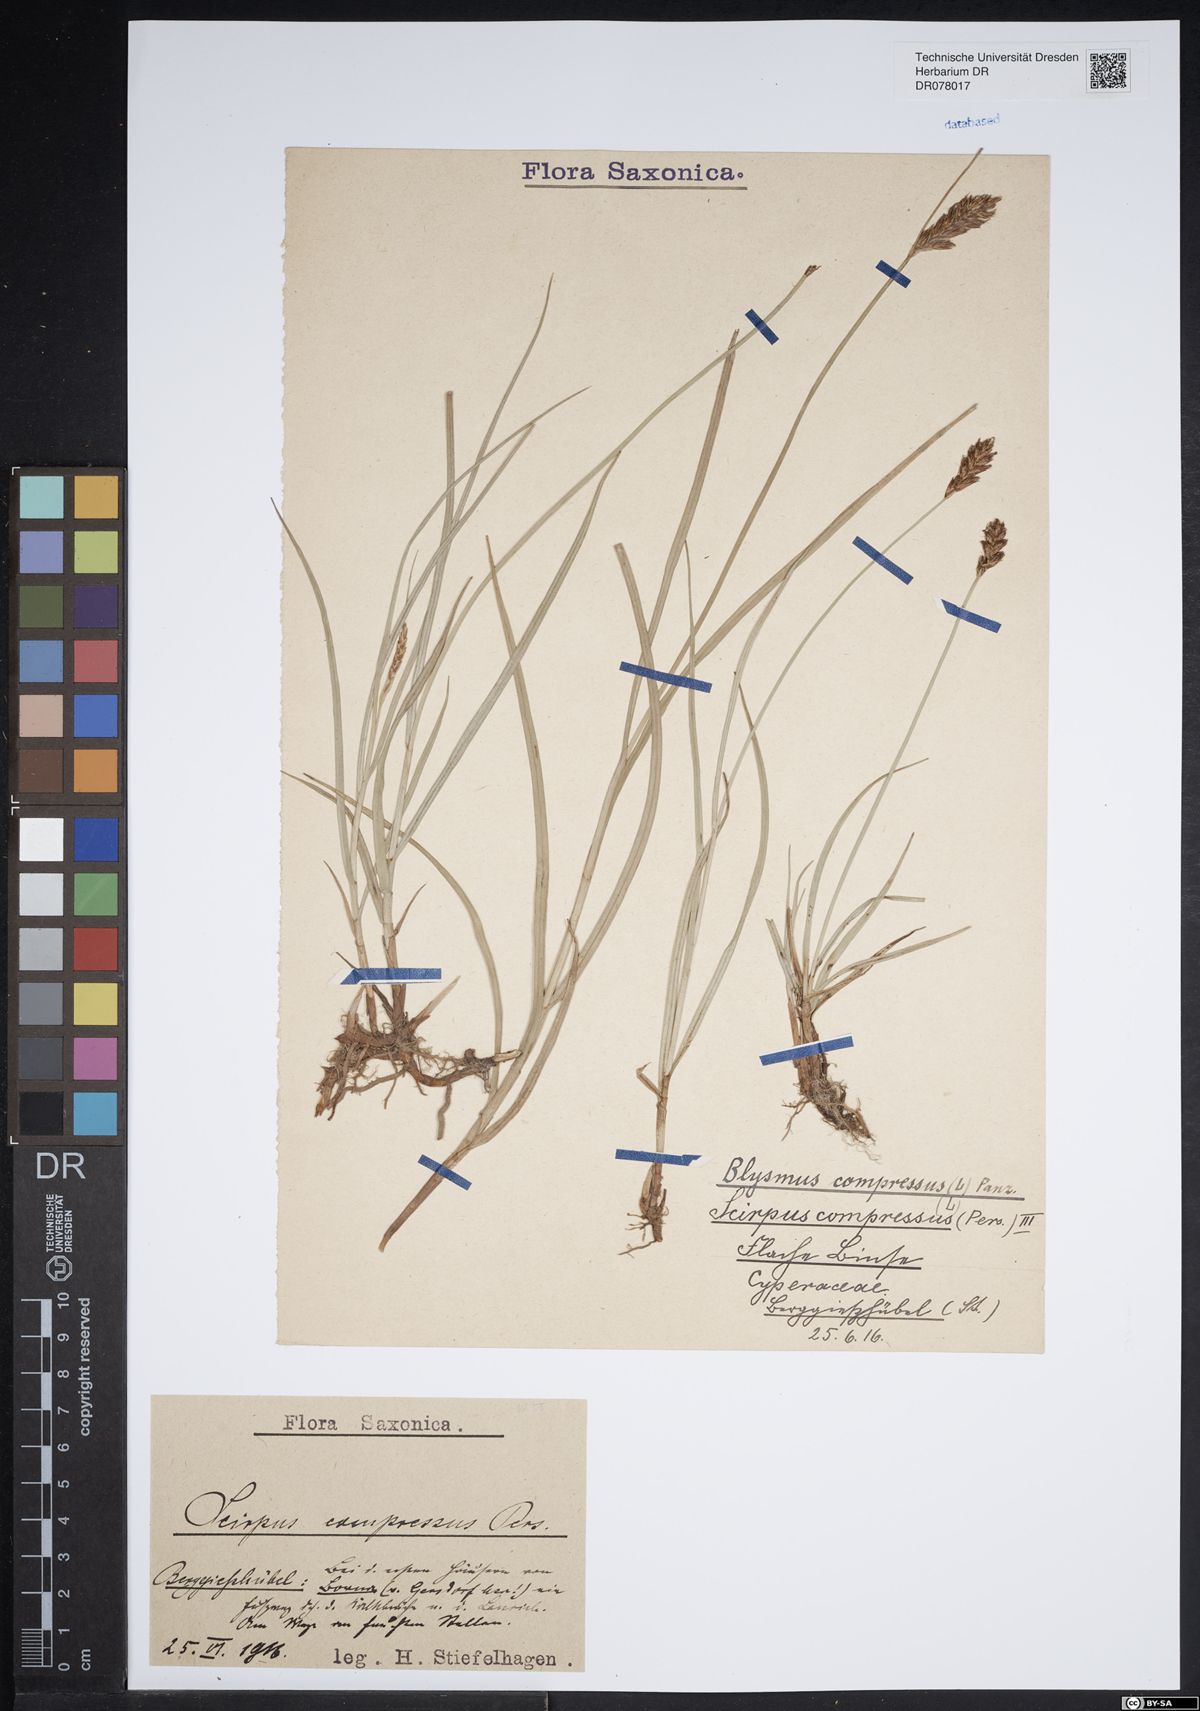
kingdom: Plantae
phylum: Tracheophyta
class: Liliopsida
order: Poales
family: Cyperaceae
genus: Blysmus
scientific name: Blysmus compressus
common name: Flat-sedge
